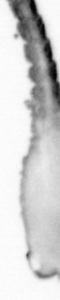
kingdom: Animalia
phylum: Annelida
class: Polychaeta
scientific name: Polychaeta
